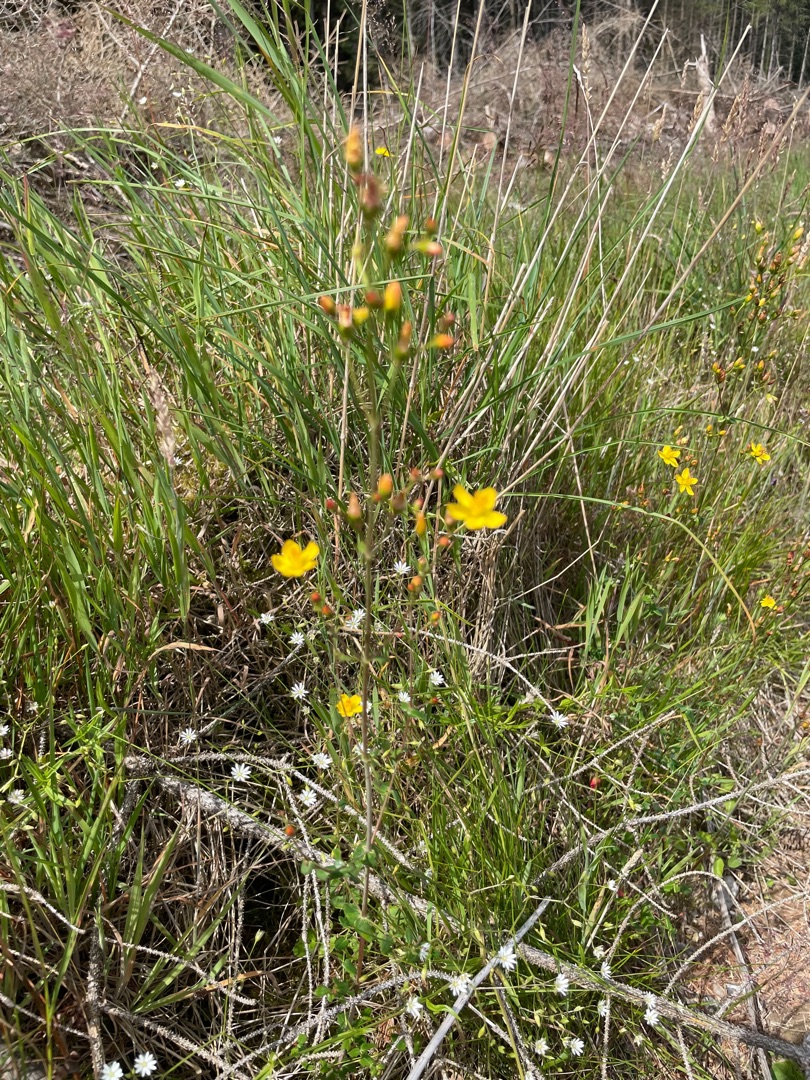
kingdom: Plantae
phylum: Tracheophyta
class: Magnoliopsida
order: Malpighiales
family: Hypericaceae
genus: Hypericum
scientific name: Hypericum pulchrum
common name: Smuk perikon
